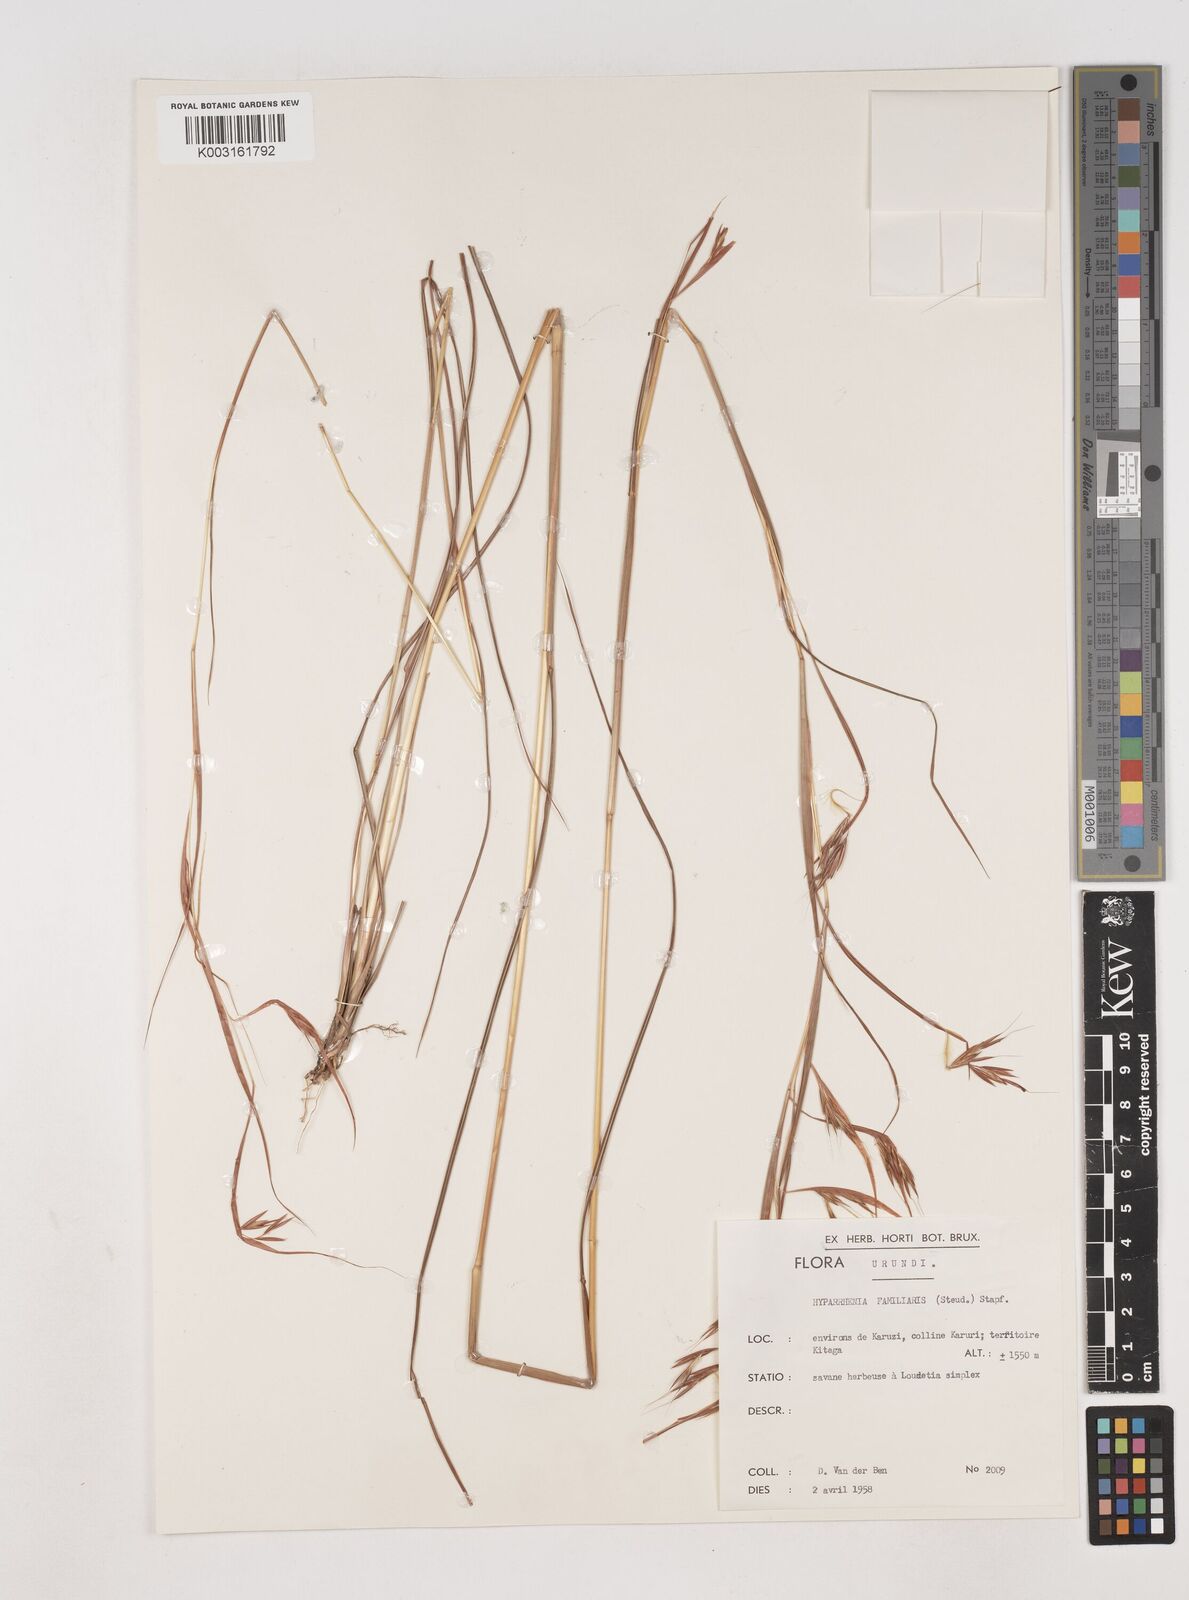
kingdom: Plantae
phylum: Tracheophyta
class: Liliopsida
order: Poales
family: Poaceae
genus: Hyparrhenia
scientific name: Hyparrhenia familiaris
